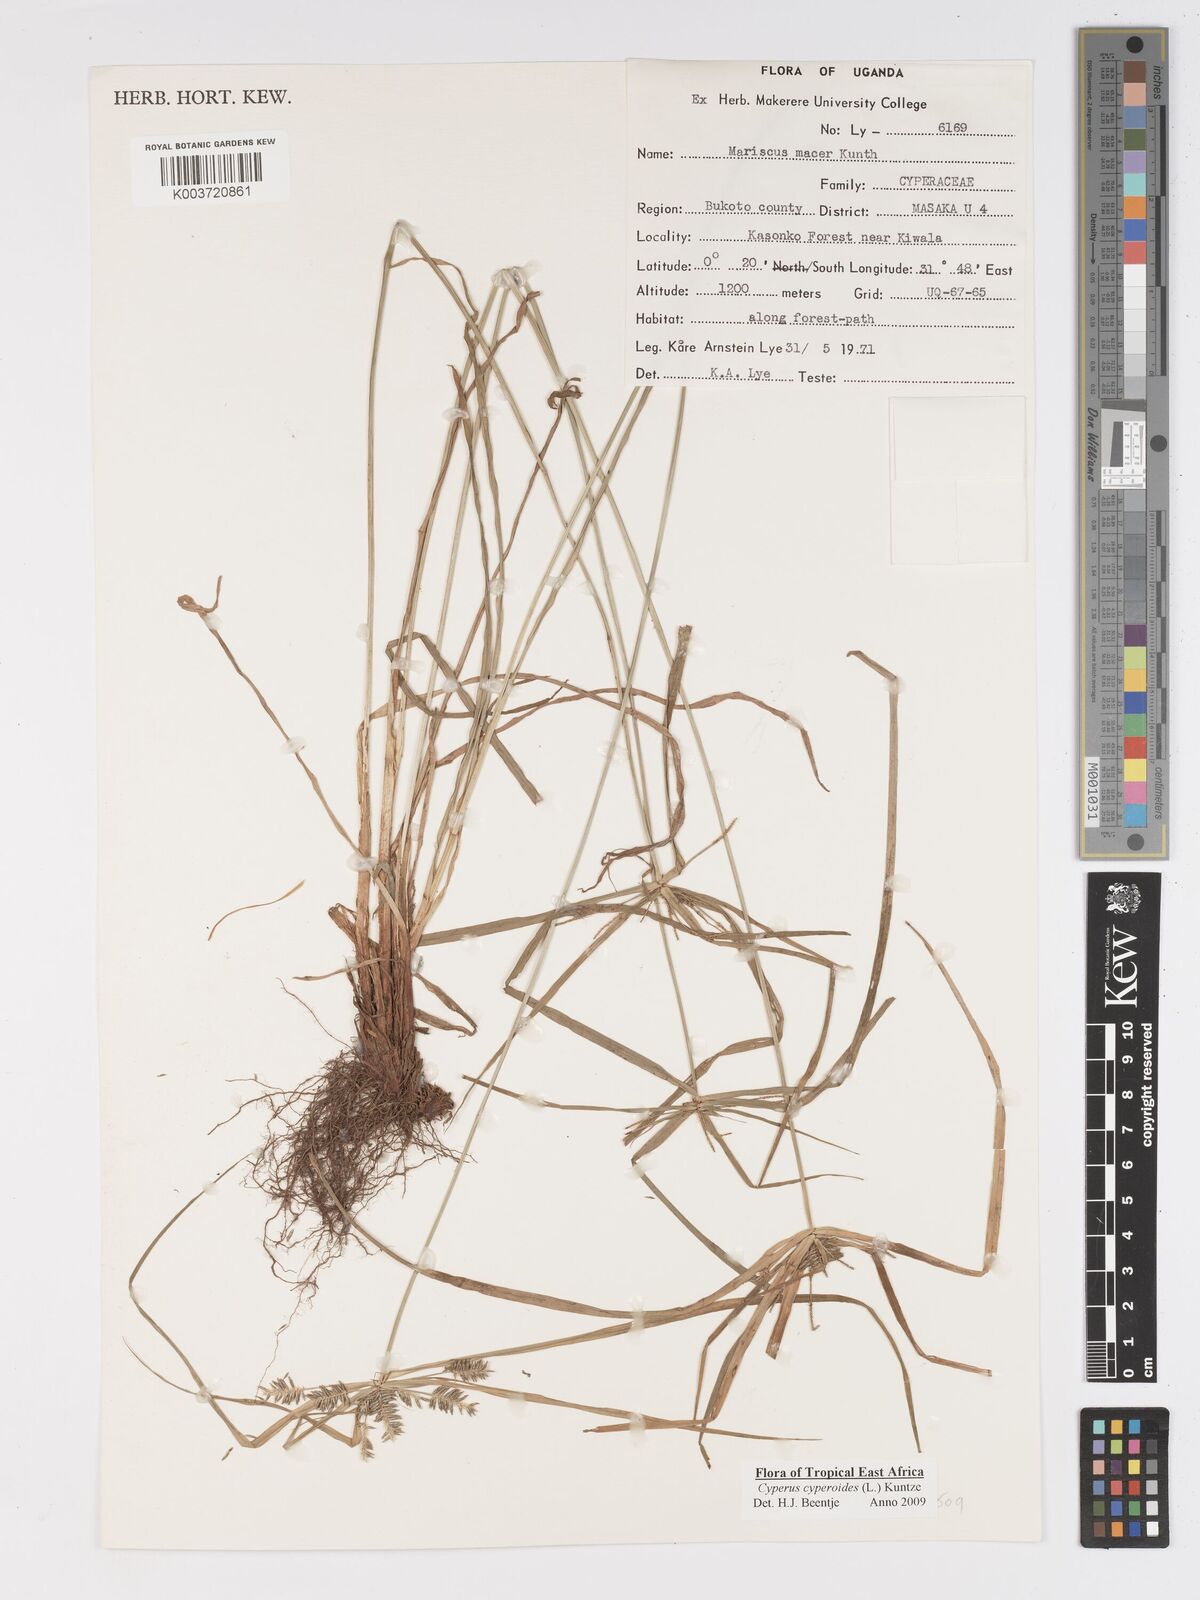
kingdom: Plantae
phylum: Tracheophyta
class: Liliopsida
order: Poales
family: Cyperaceae
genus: Cyperus
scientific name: Cyperus pseudoflavus
